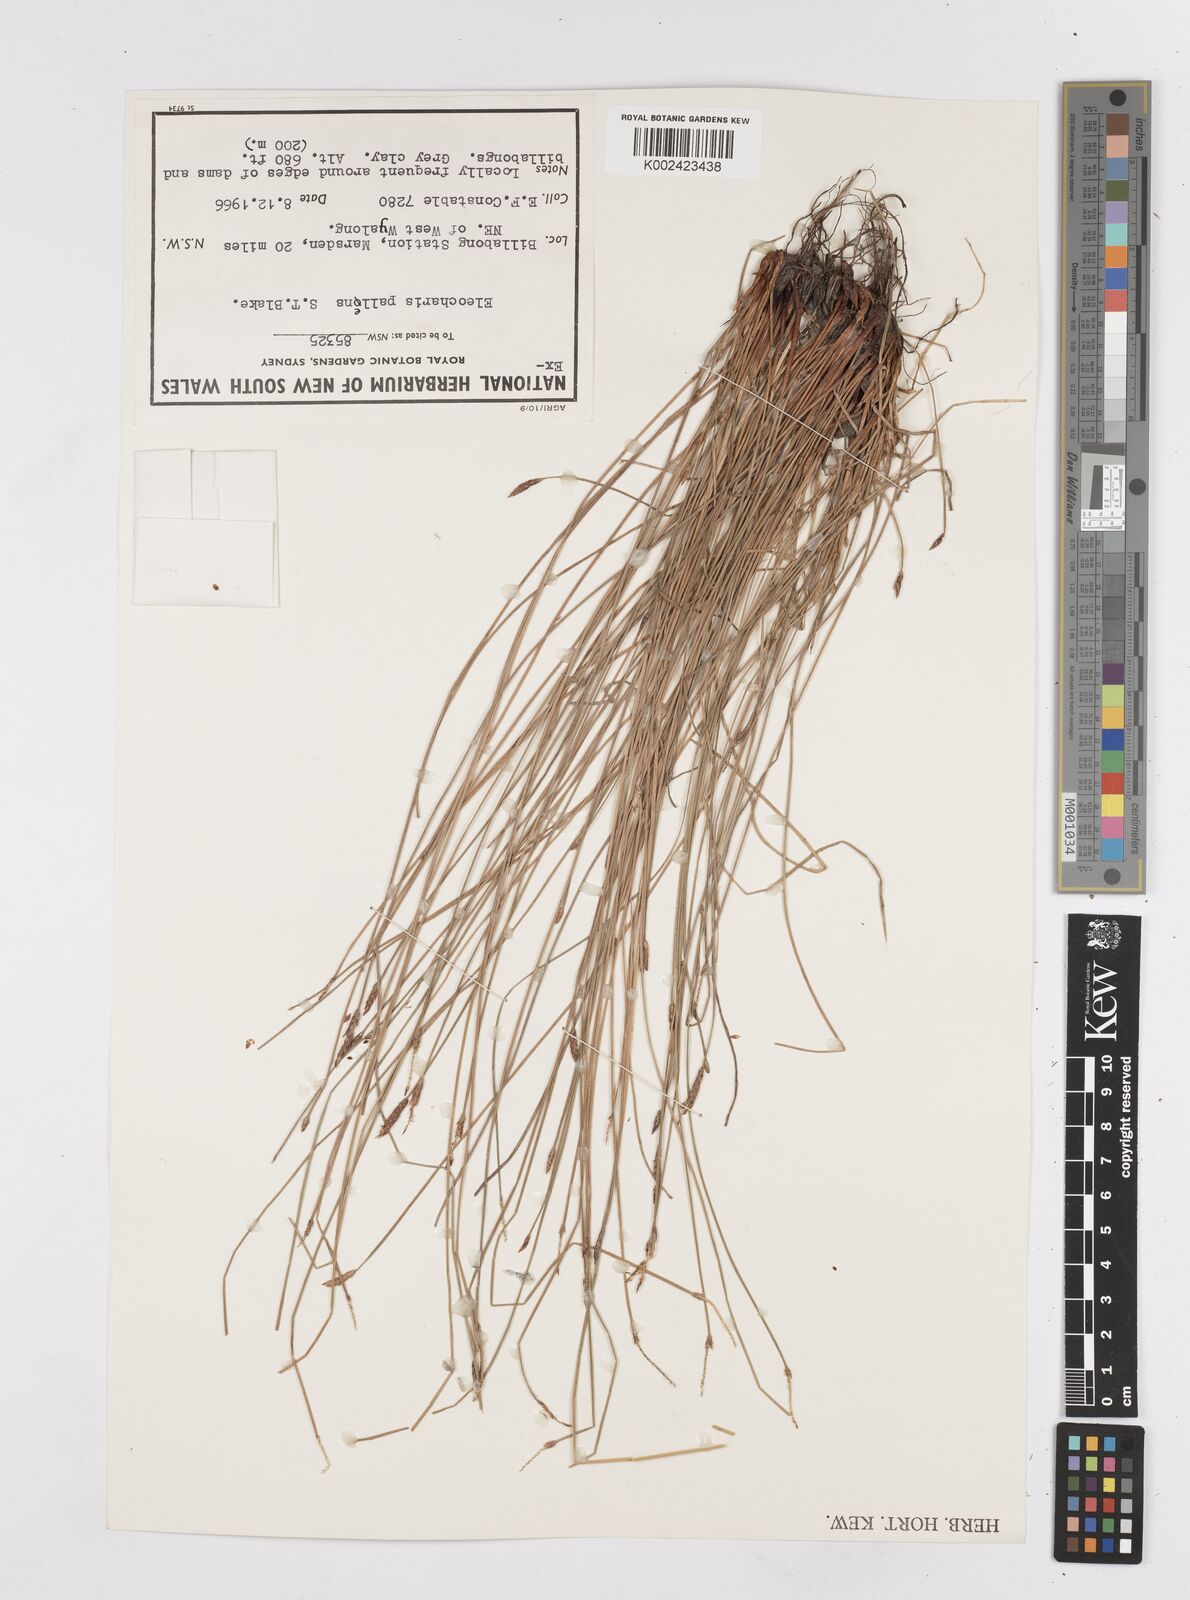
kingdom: Plantae
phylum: Tracheophyta
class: Liliopsida
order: Poales
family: Cyperaceae
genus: Eleocharis
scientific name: Eleocharis acuta
